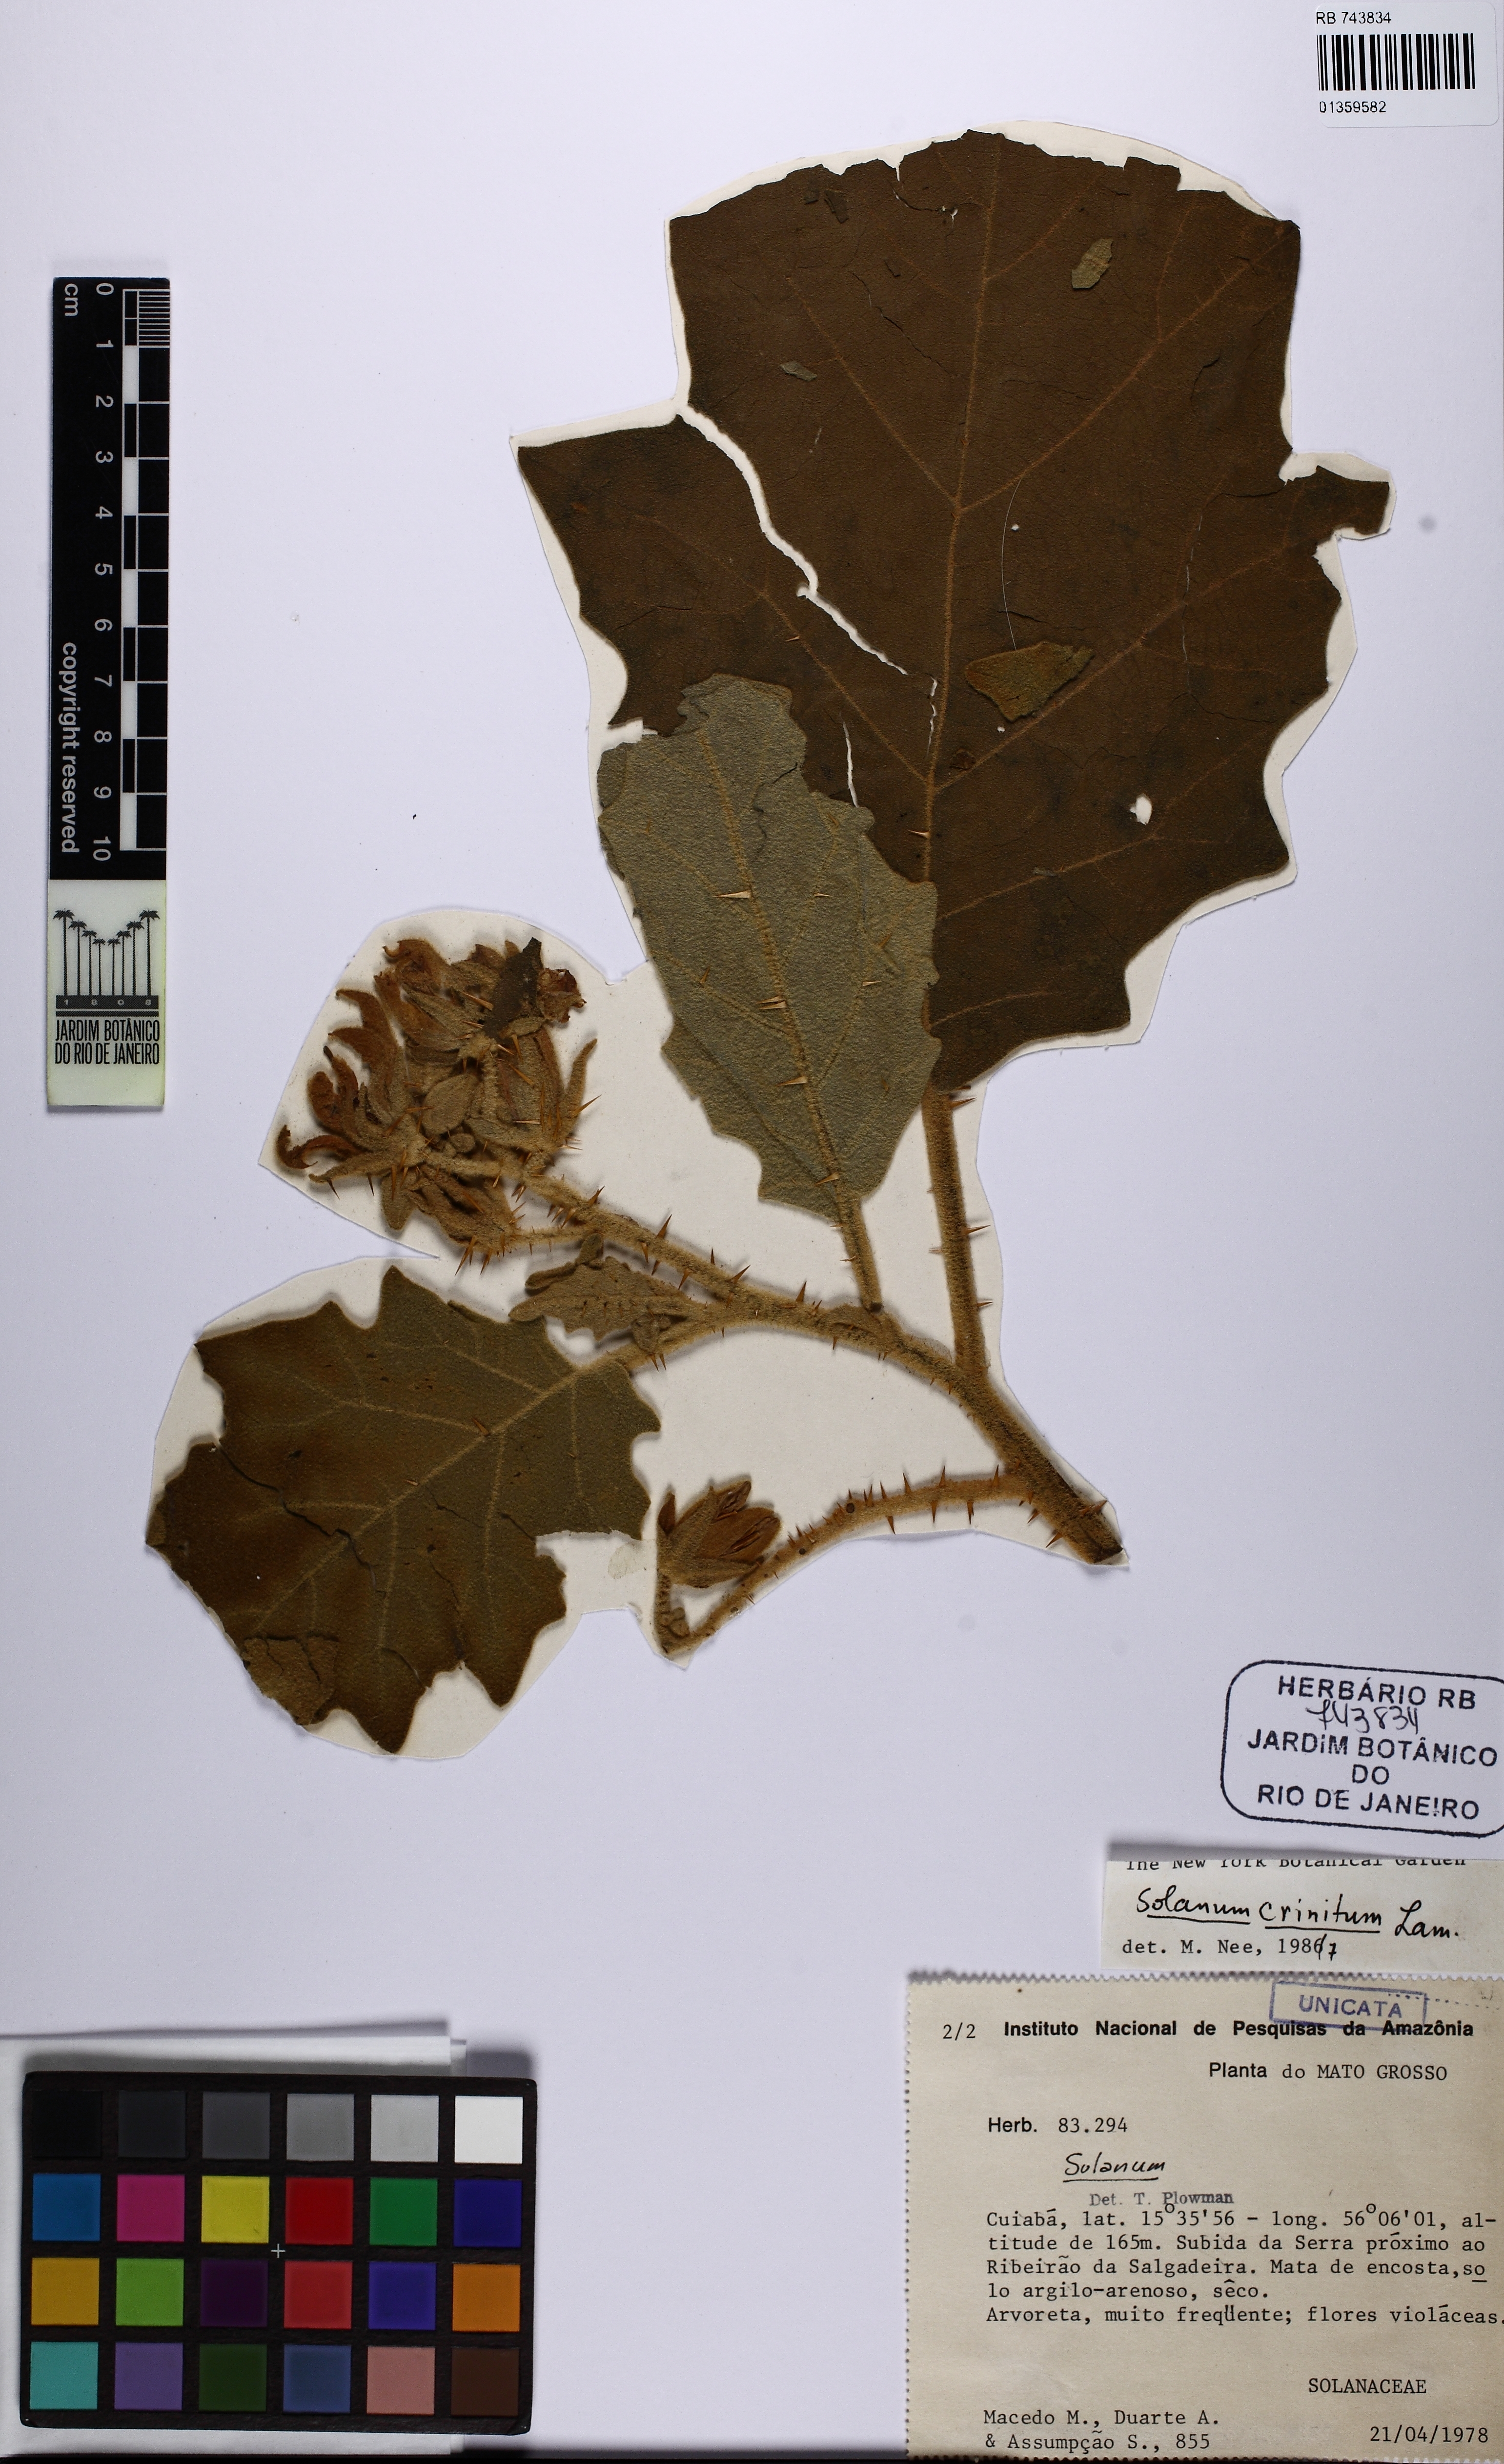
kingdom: Plantae
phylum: Tracheophyta
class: Magnoliopsida
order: Solanales
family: Solanaceae
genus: Solanum
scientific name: Solanum crinitum
